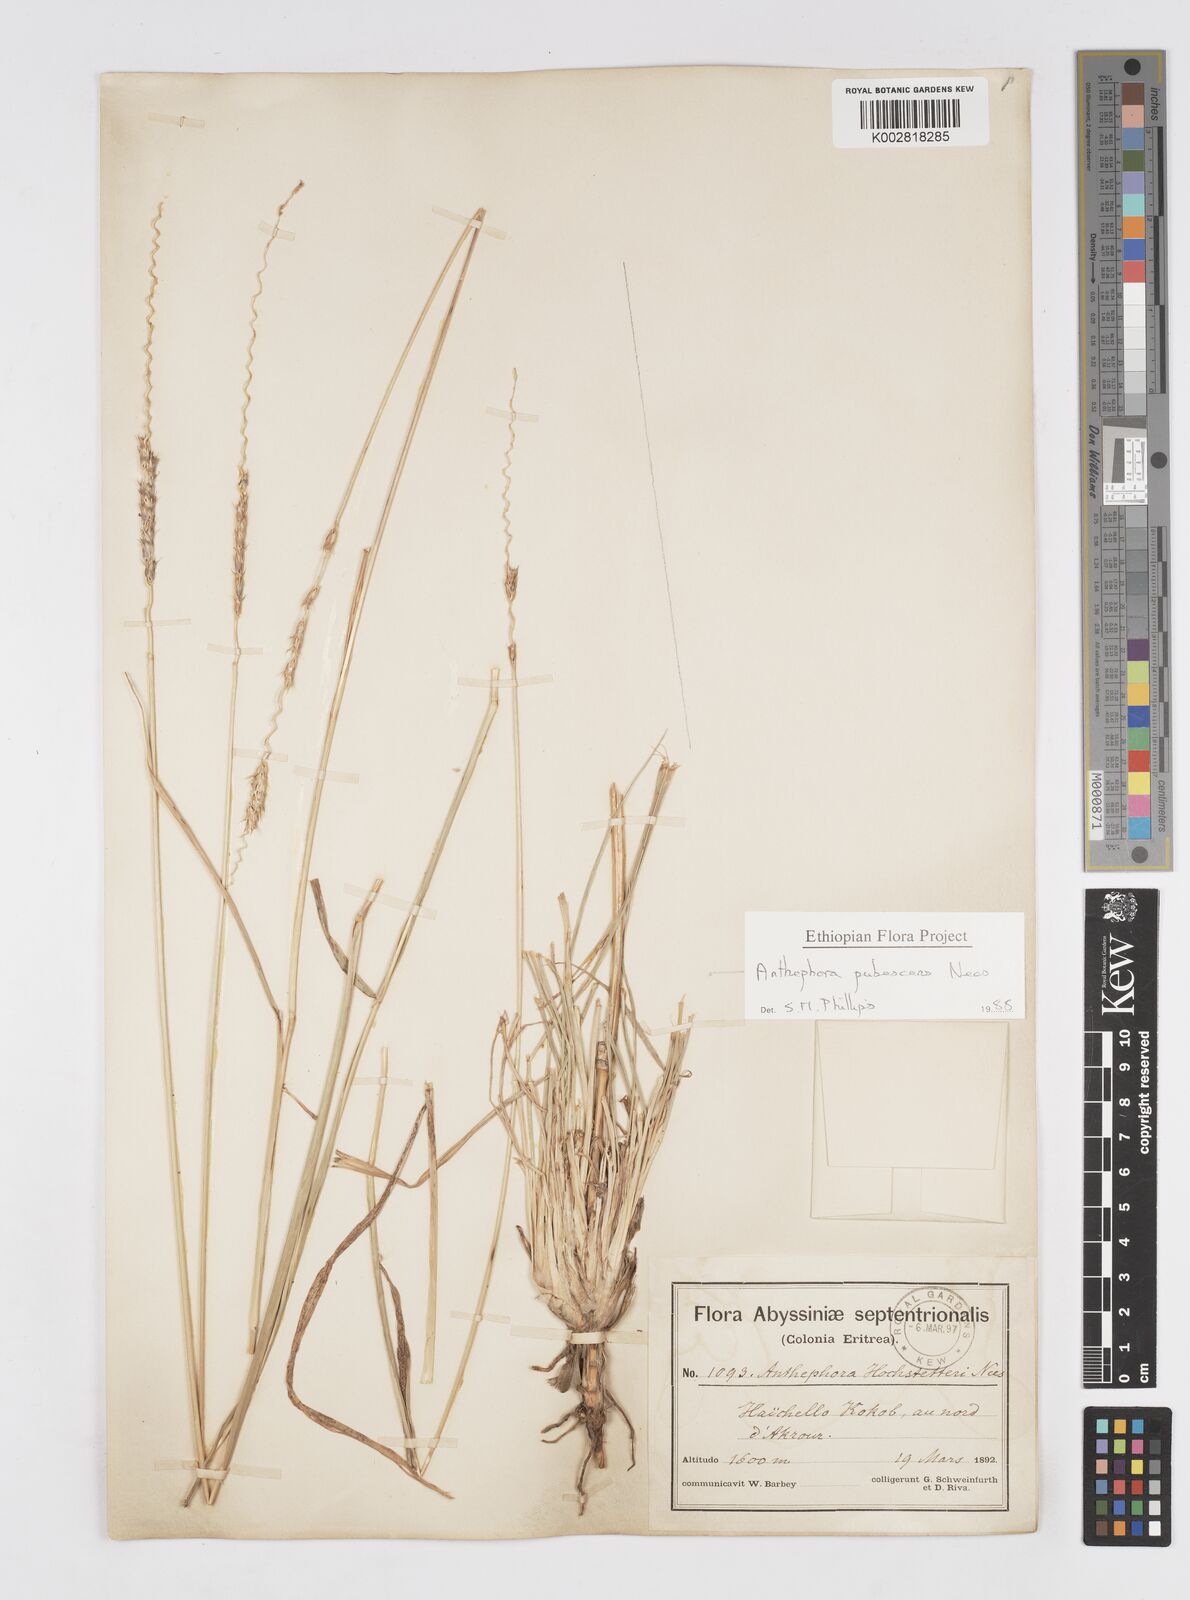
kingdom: Plantae
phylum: Tracheophyta
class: Liliopsida
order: Poales
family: Poaceae
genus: Anthephora
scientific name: Anthephora pubescens
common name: Wool grass
